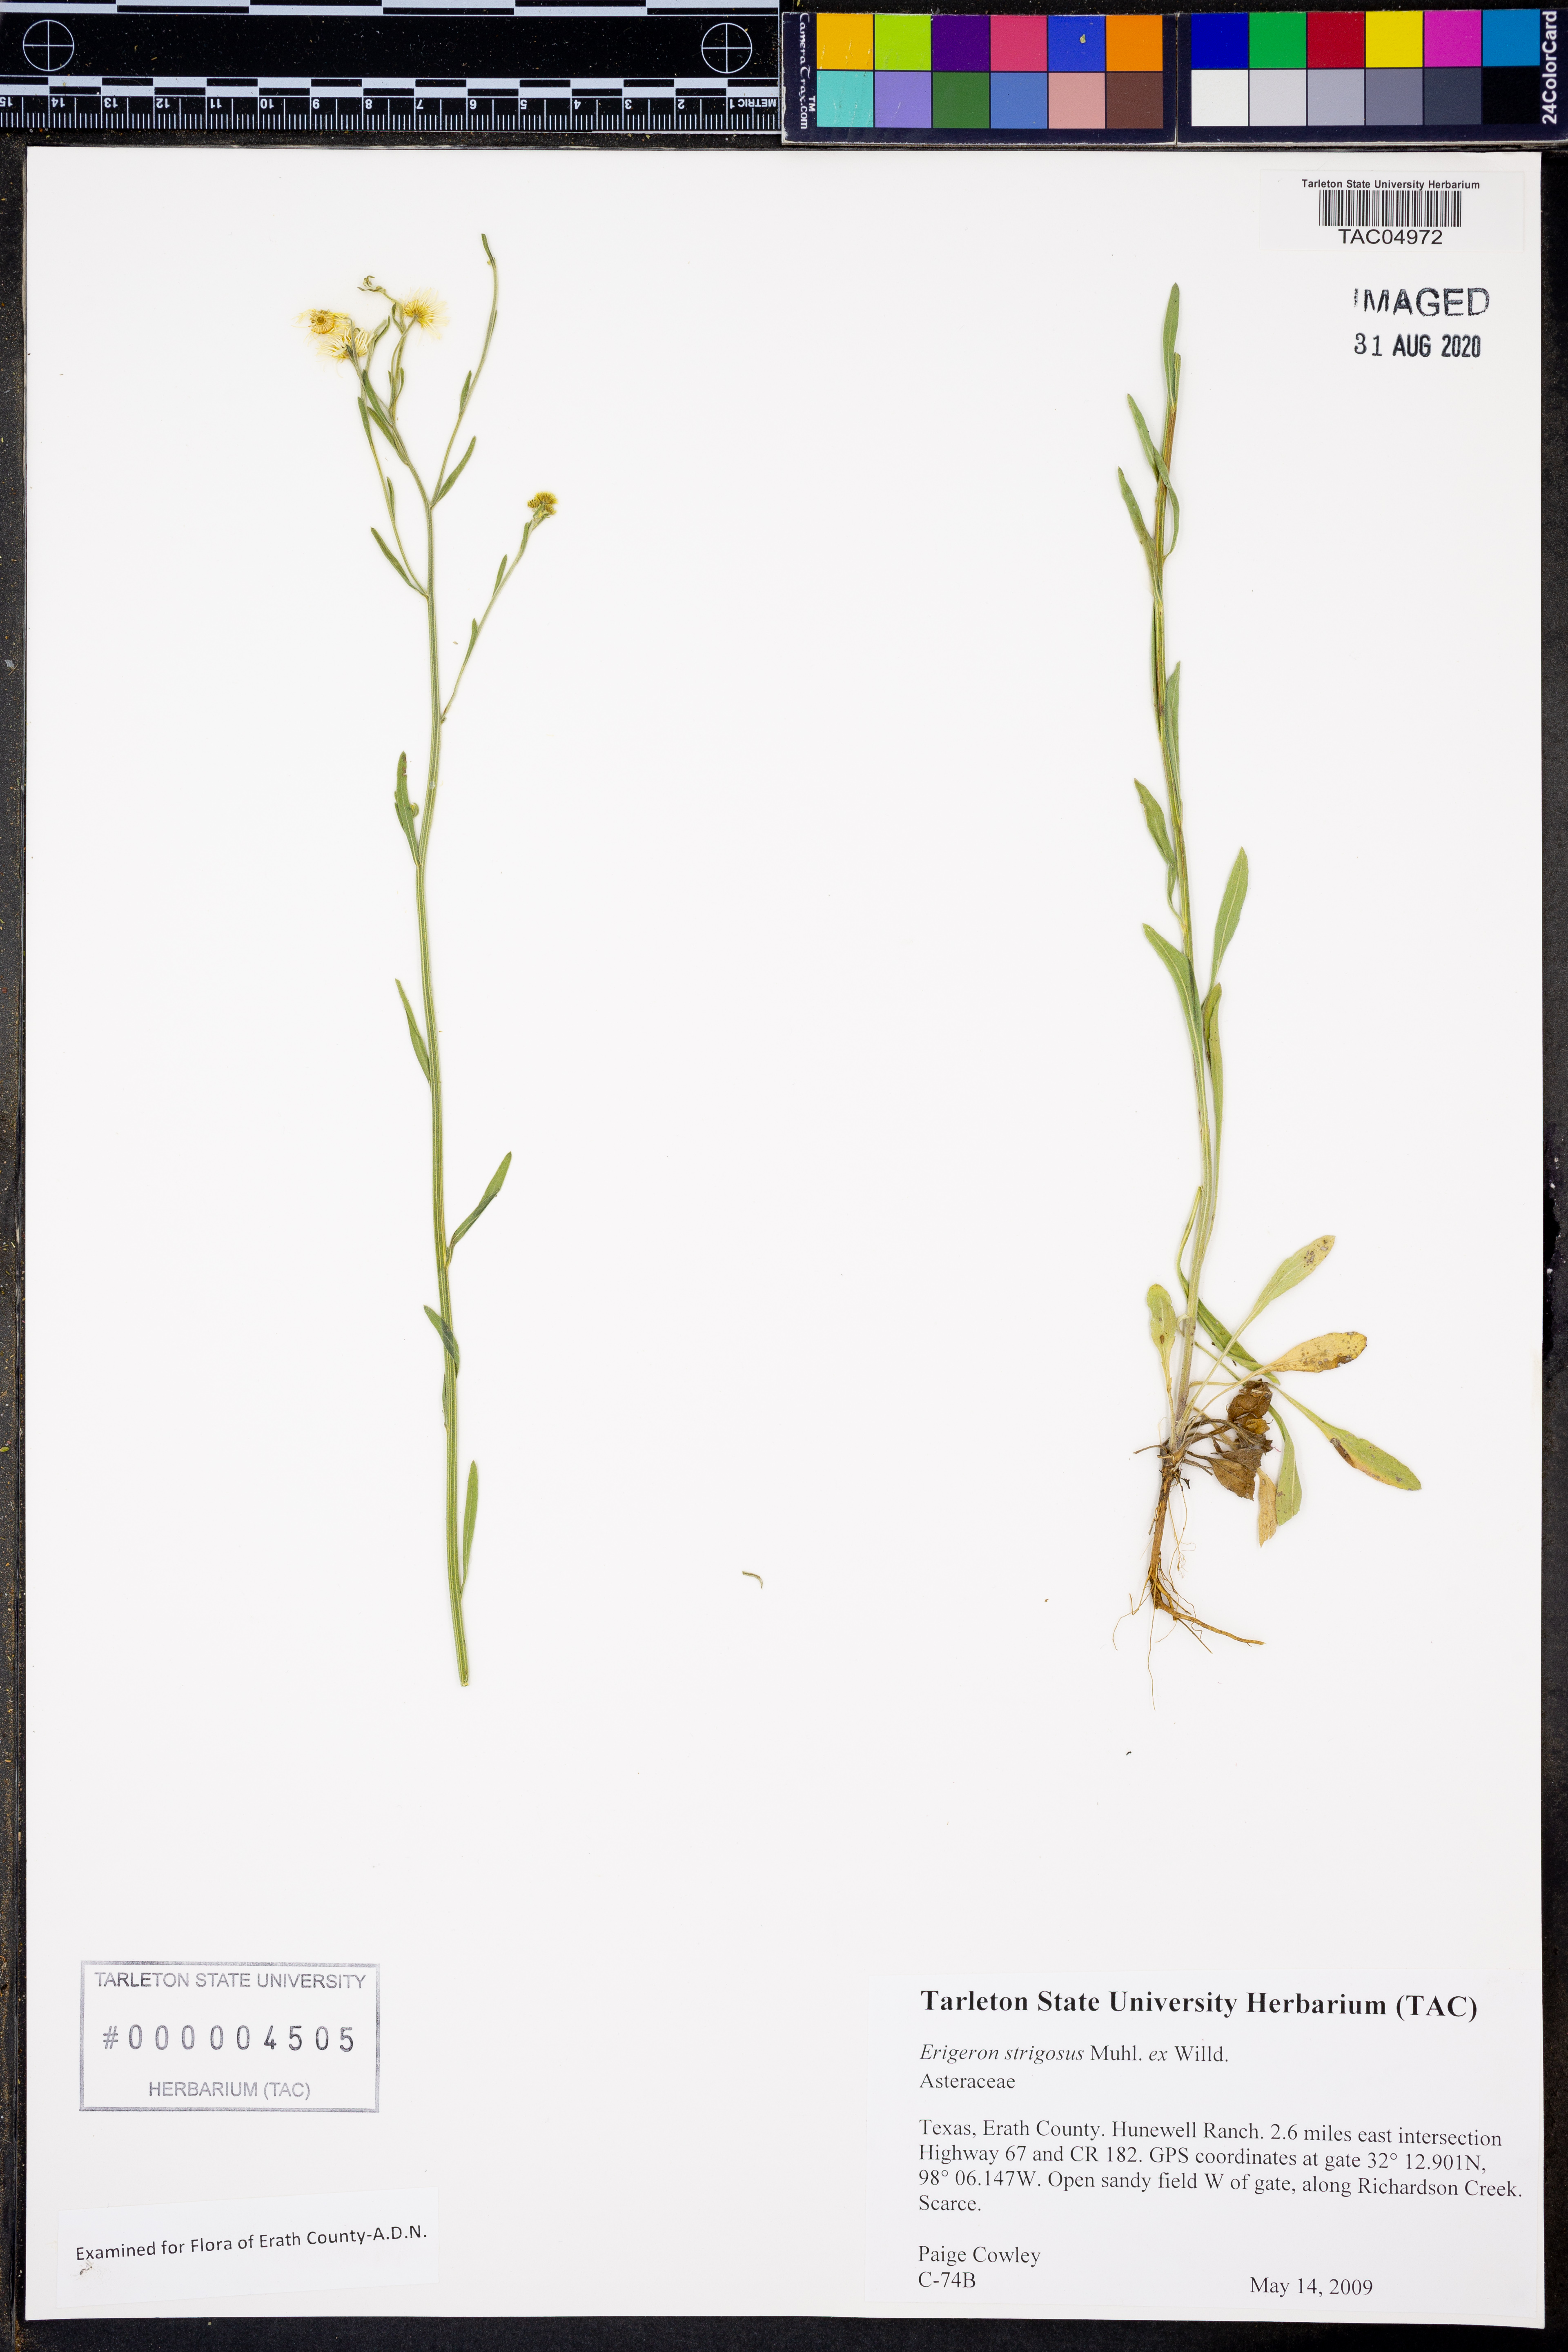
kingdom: Plantae
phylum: Tracheophyta
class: Magnoliopsida
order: Asterales
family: Asteraceae
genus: Erigeron
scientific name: Erigeron strigosus
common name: Common eastern fleabane
